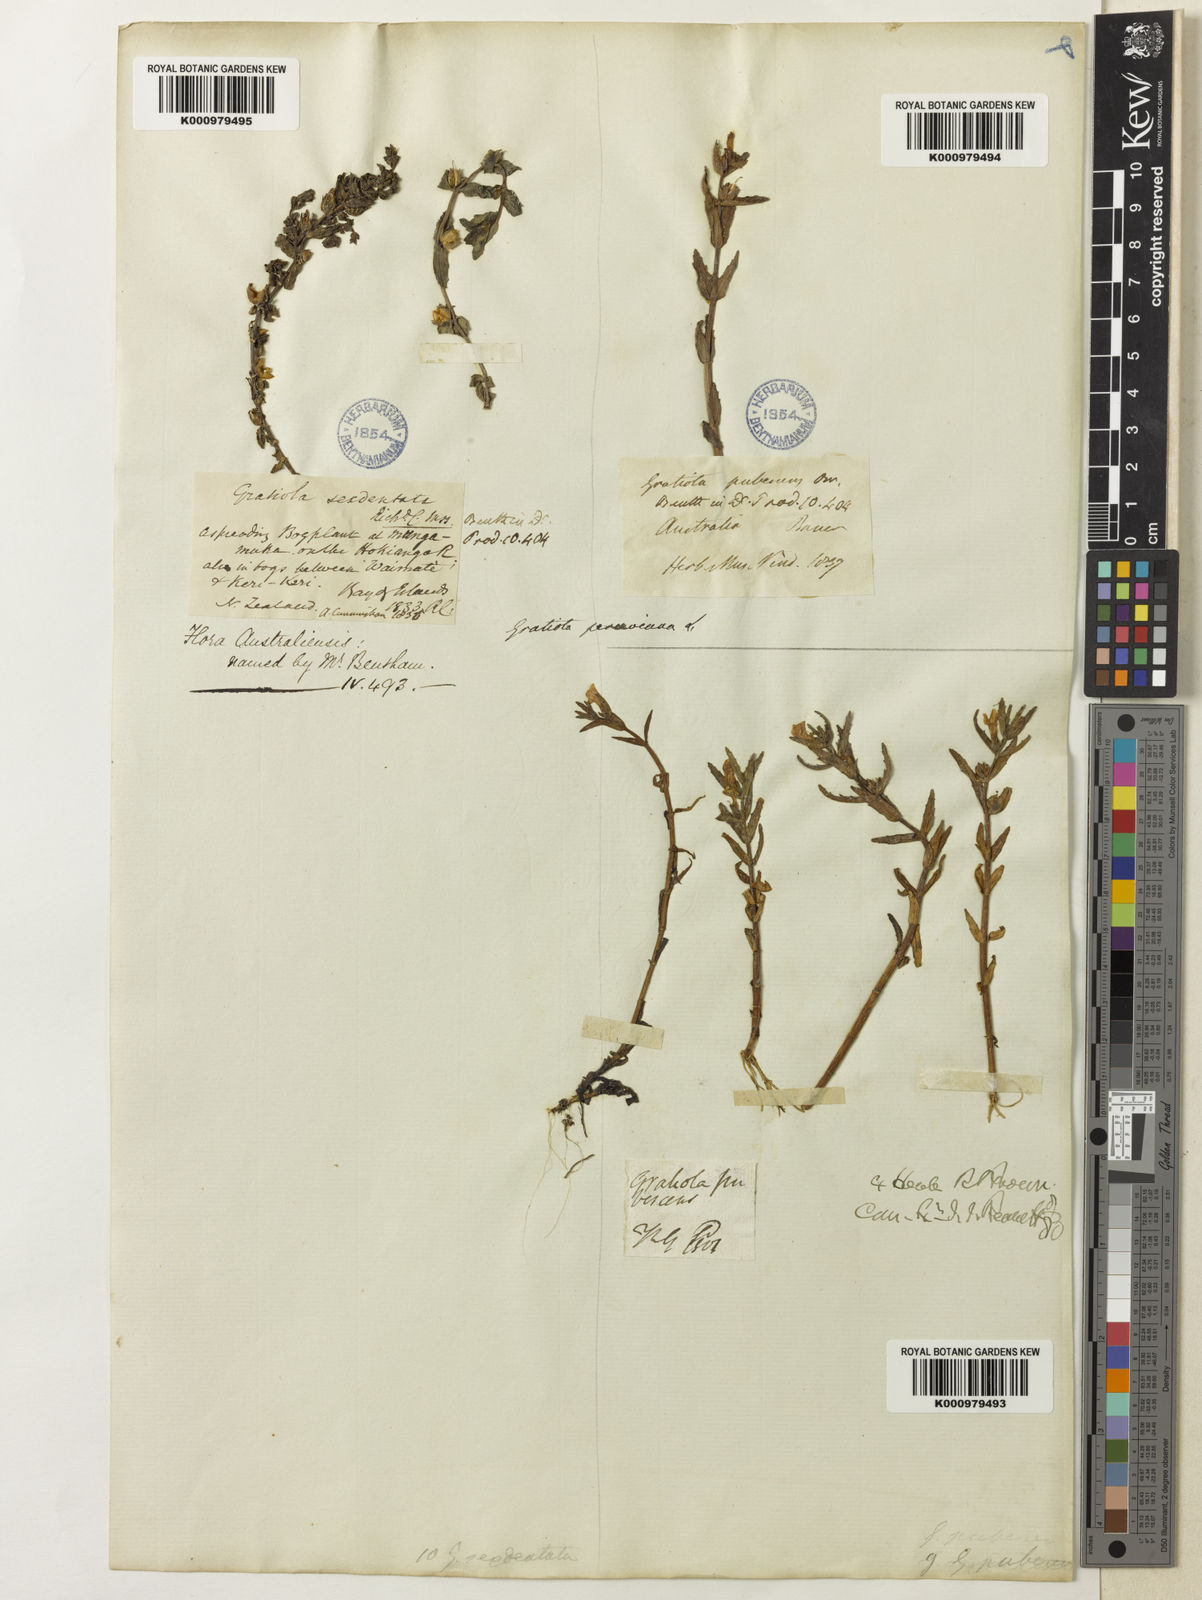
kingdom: Plantae
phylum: Tracheophyta
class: Magnoliopsida
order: Lamiales
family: Plantaginaceae
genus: Gratiola
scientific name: Gratiola peruviana
